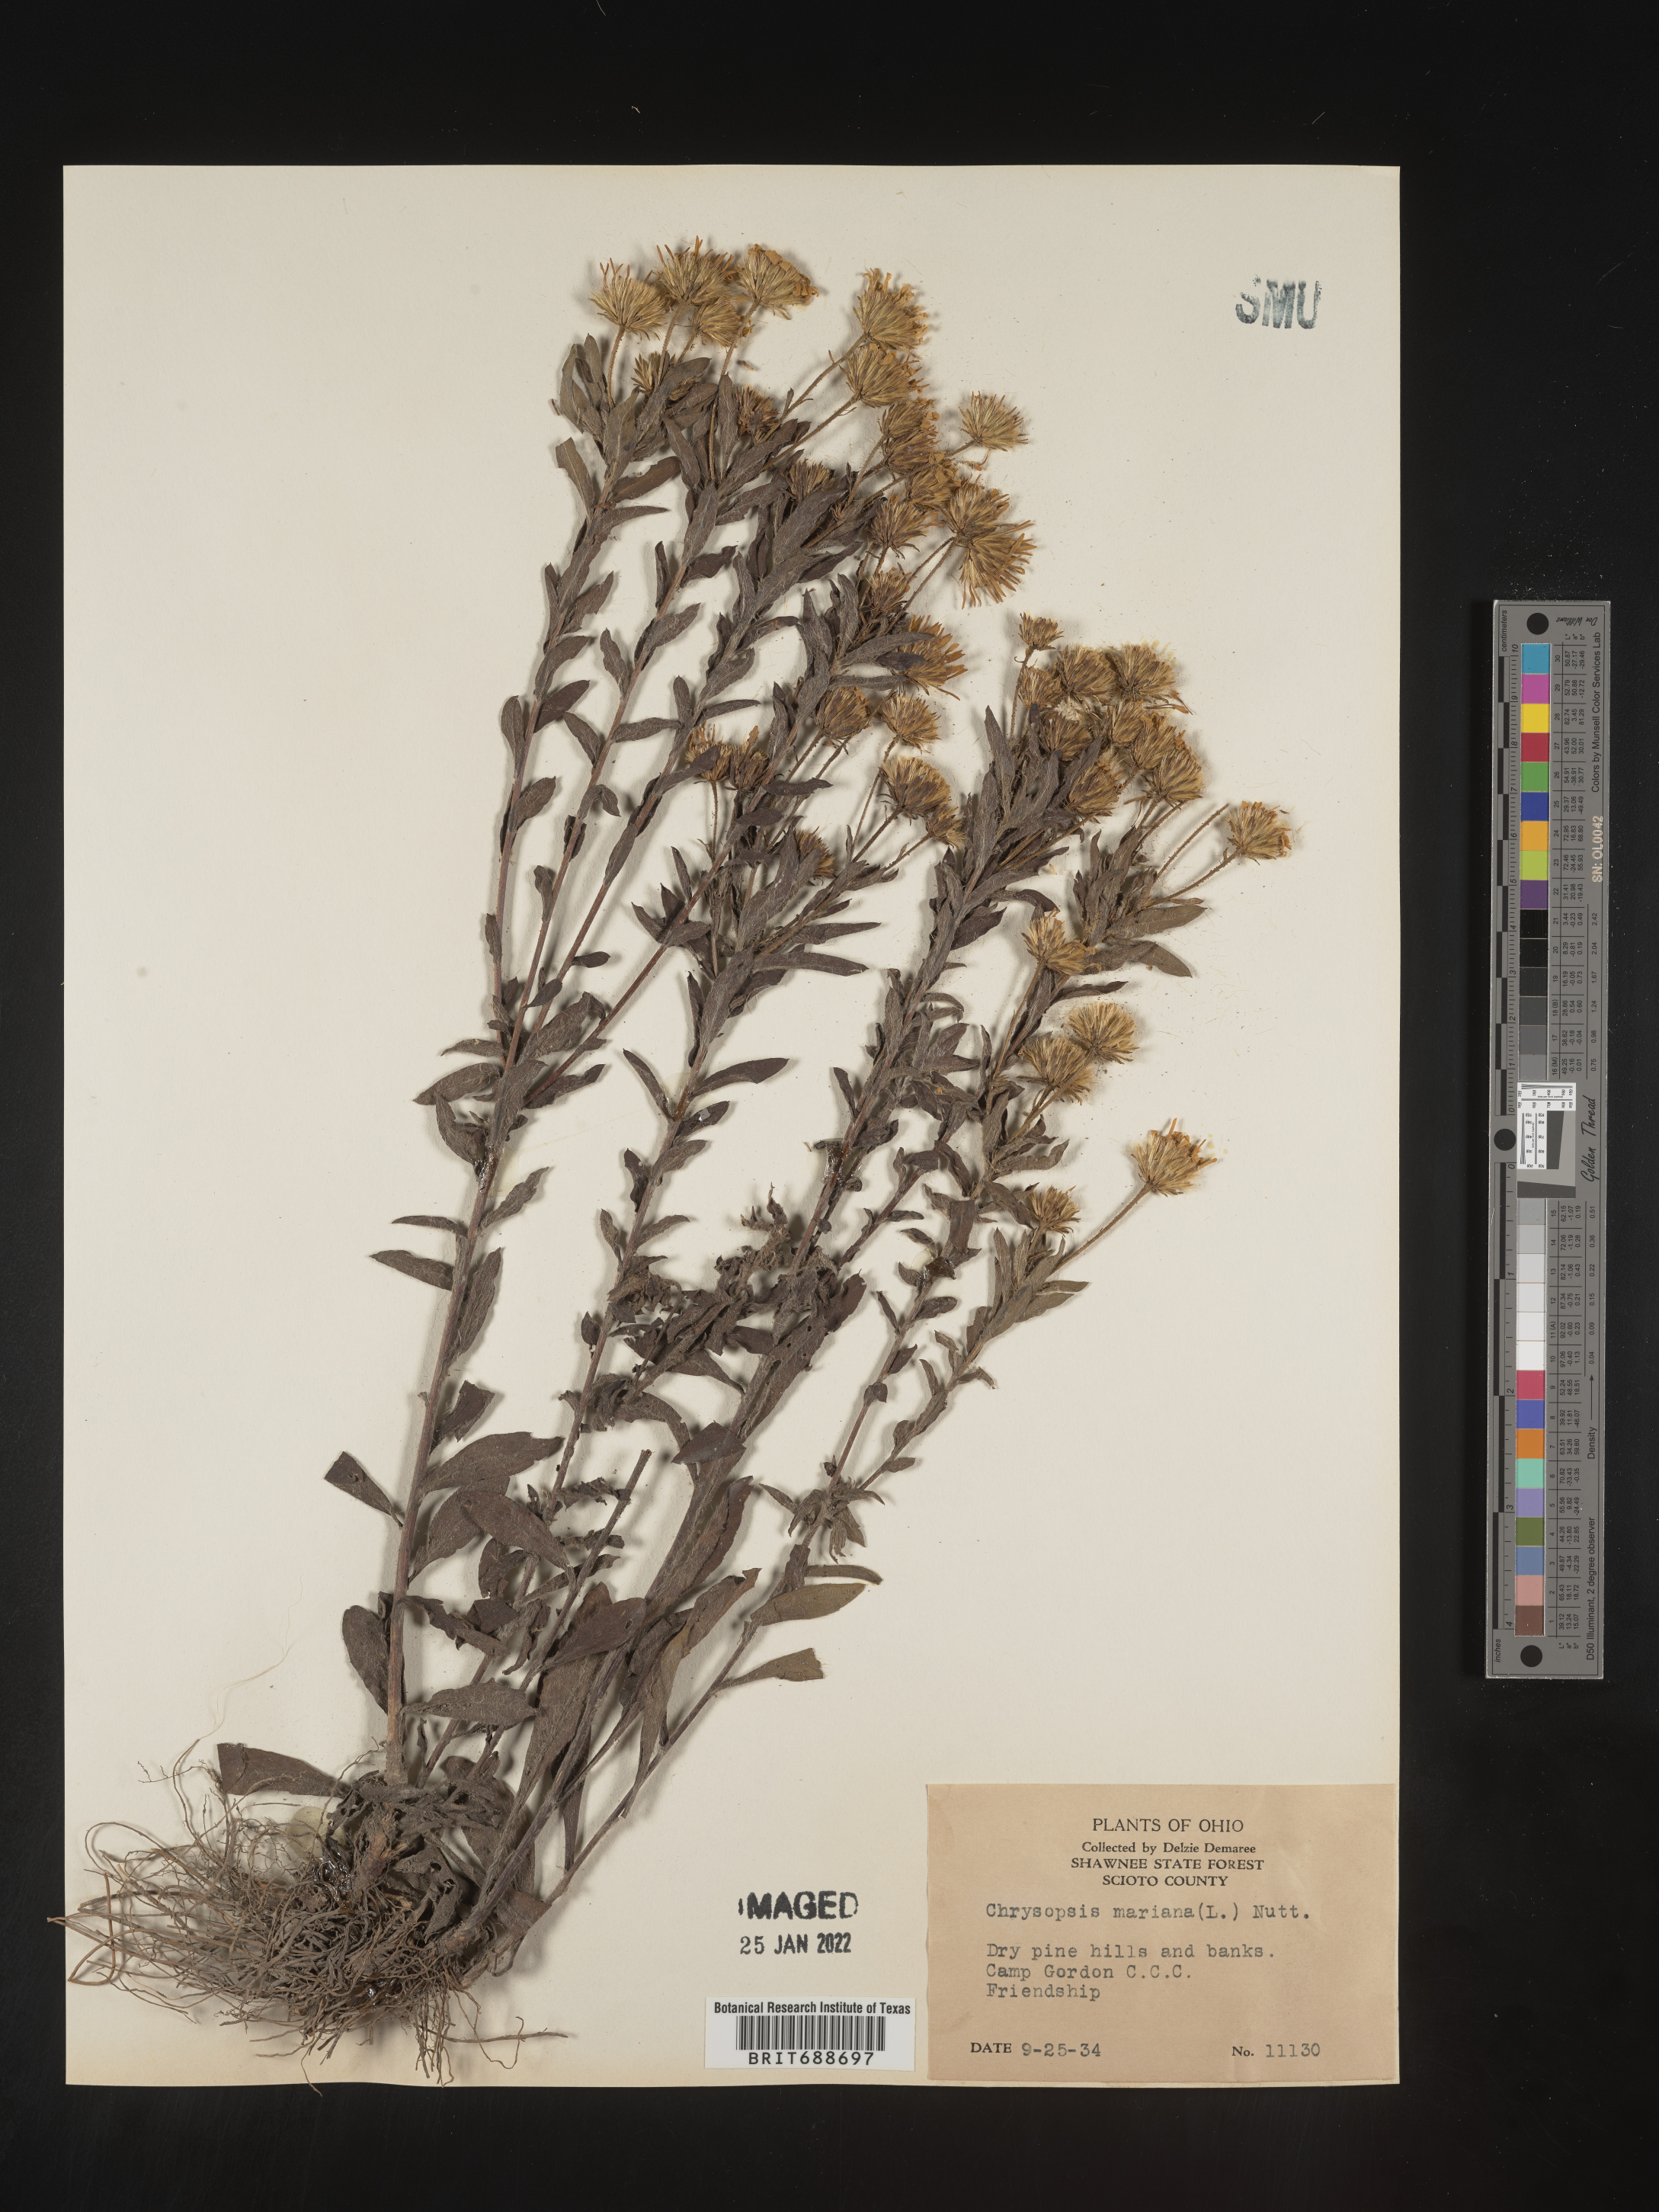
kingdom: Plantae
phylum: Tracheophyta
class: Magnoliopsida
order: Asterales
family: Asteraceae
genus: Chrysopsis
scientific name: Chrysopsis mariana
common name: Maryland golden-aster
